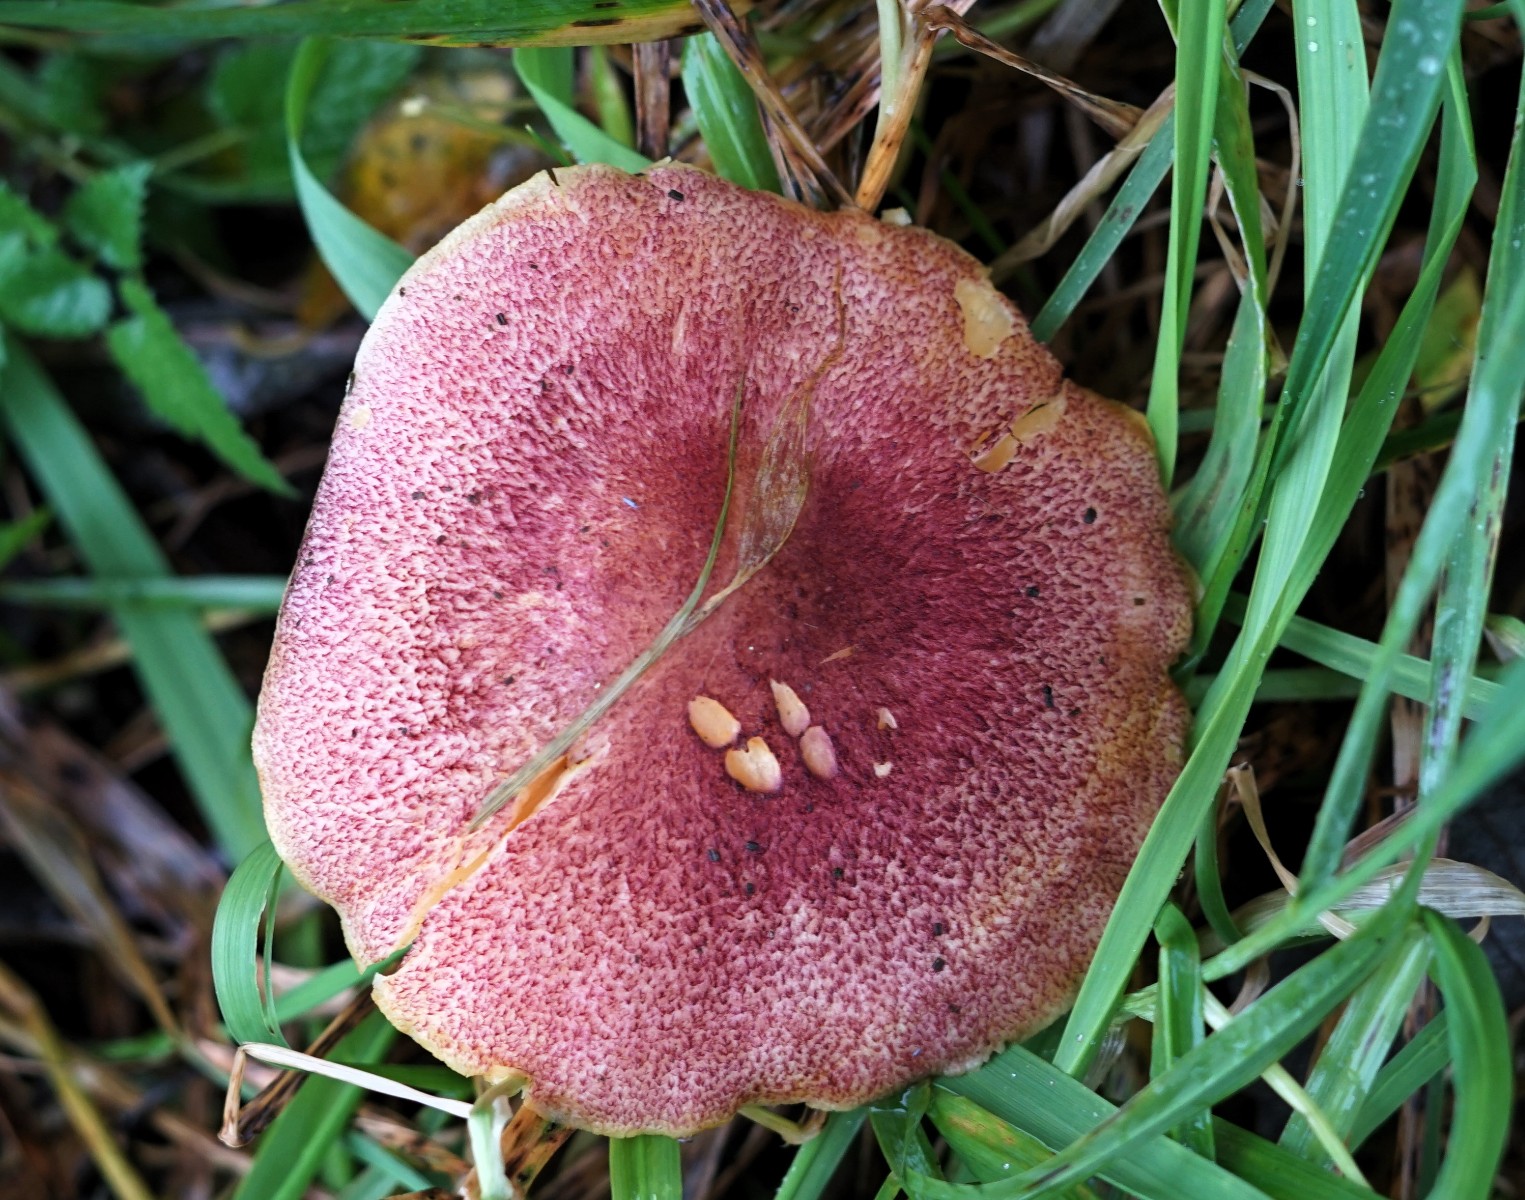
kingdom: Fungi
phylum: Basidiomycota
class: Agaricomycetes
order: Agaricales
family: Tricholomataceae
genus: Tricholomopsis
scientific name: Tricholomopsis rutilans
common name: purpur-væbnerhat
